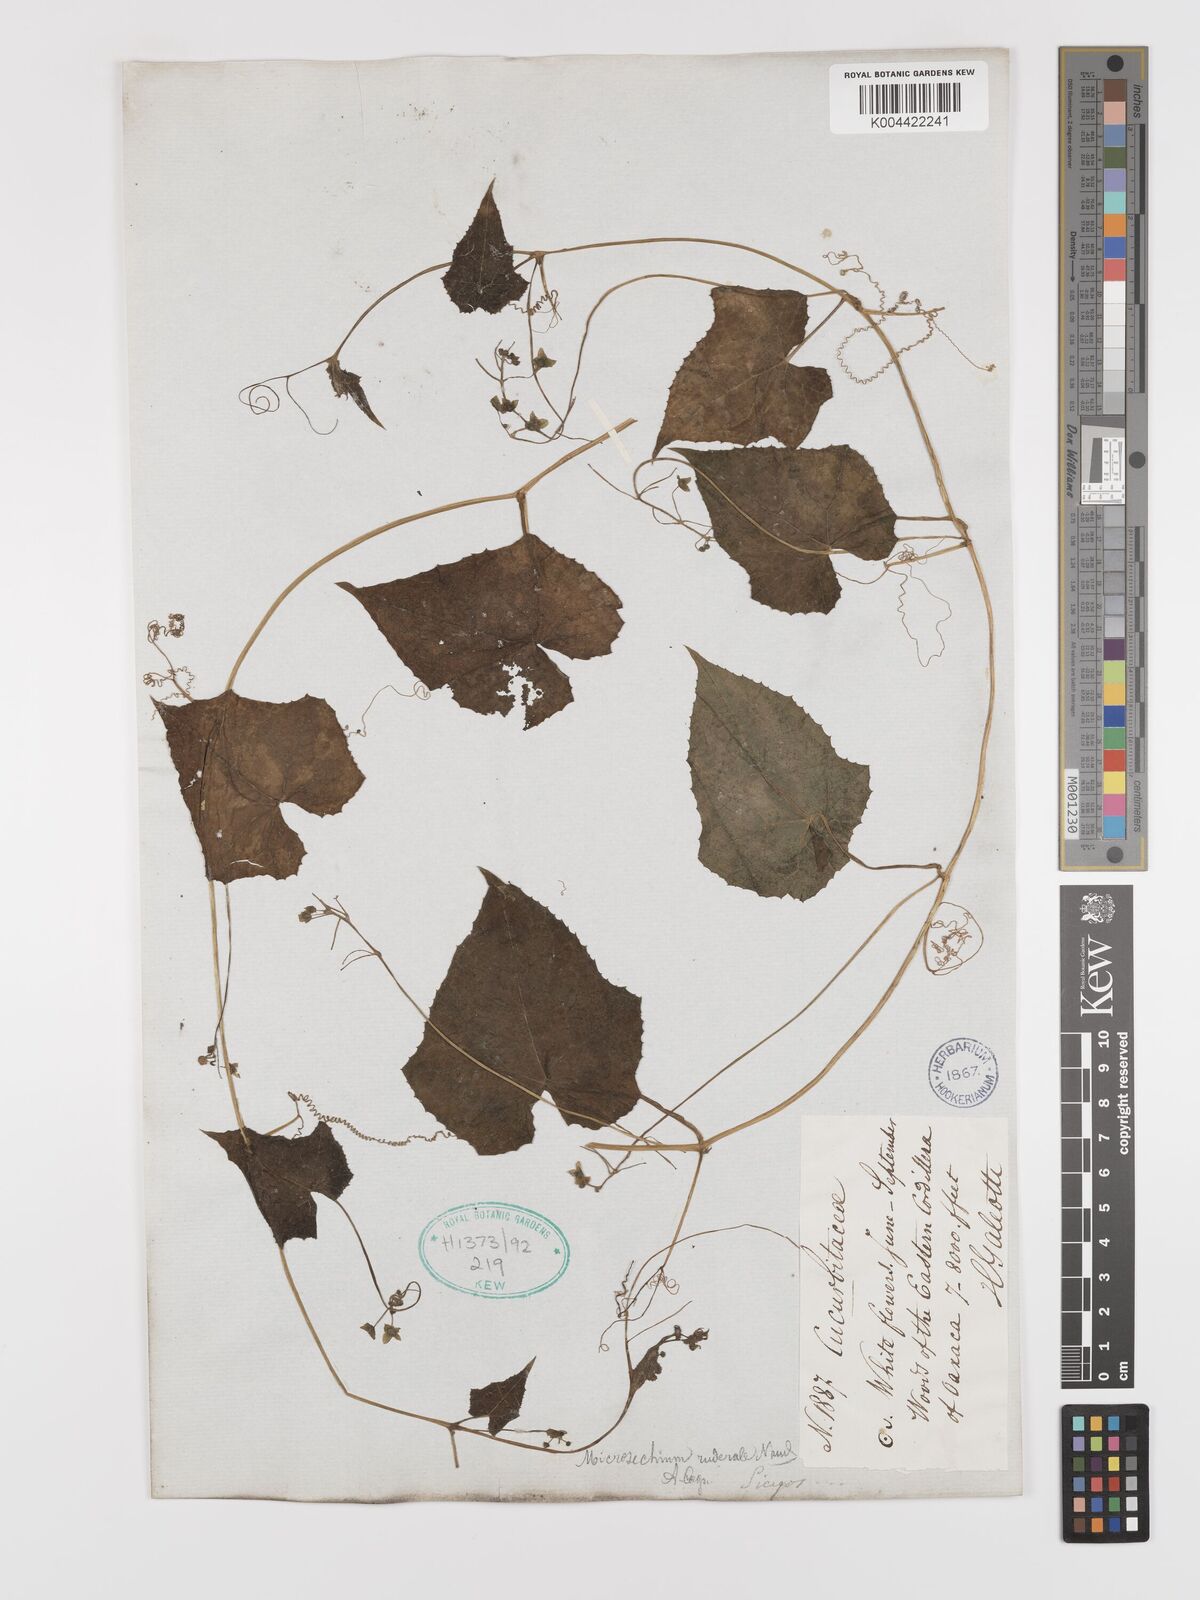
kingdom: Plantae
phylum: Tracheophyta
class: Magnoliopsida
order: Cucurbitales
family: Cucurbitaceae
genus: Microsechium
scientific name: Microsechium palmatum
